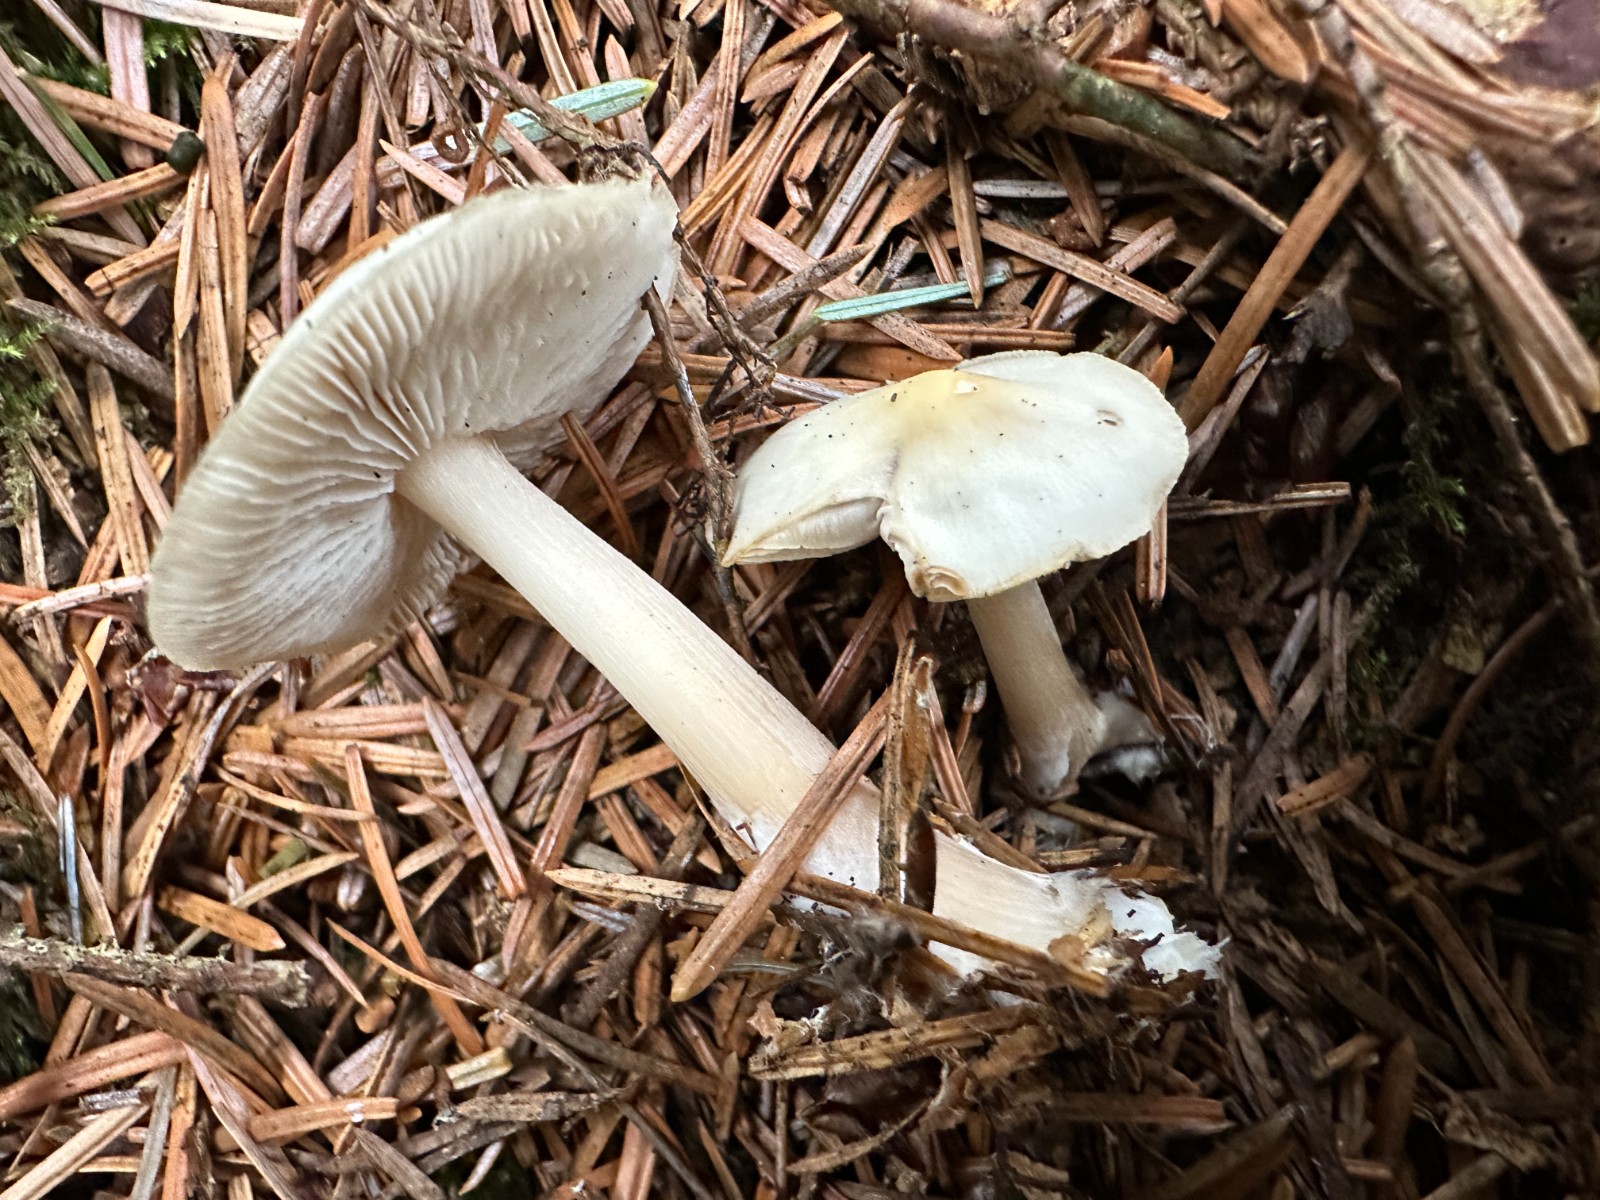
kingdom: Fungi
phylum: Basidiomycota
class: Agaricomycetes
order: Agaricales
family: Omphalotaceae
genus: Rhodocollybia
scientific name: Rhodocollybia asema
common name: horngrå fladhat
